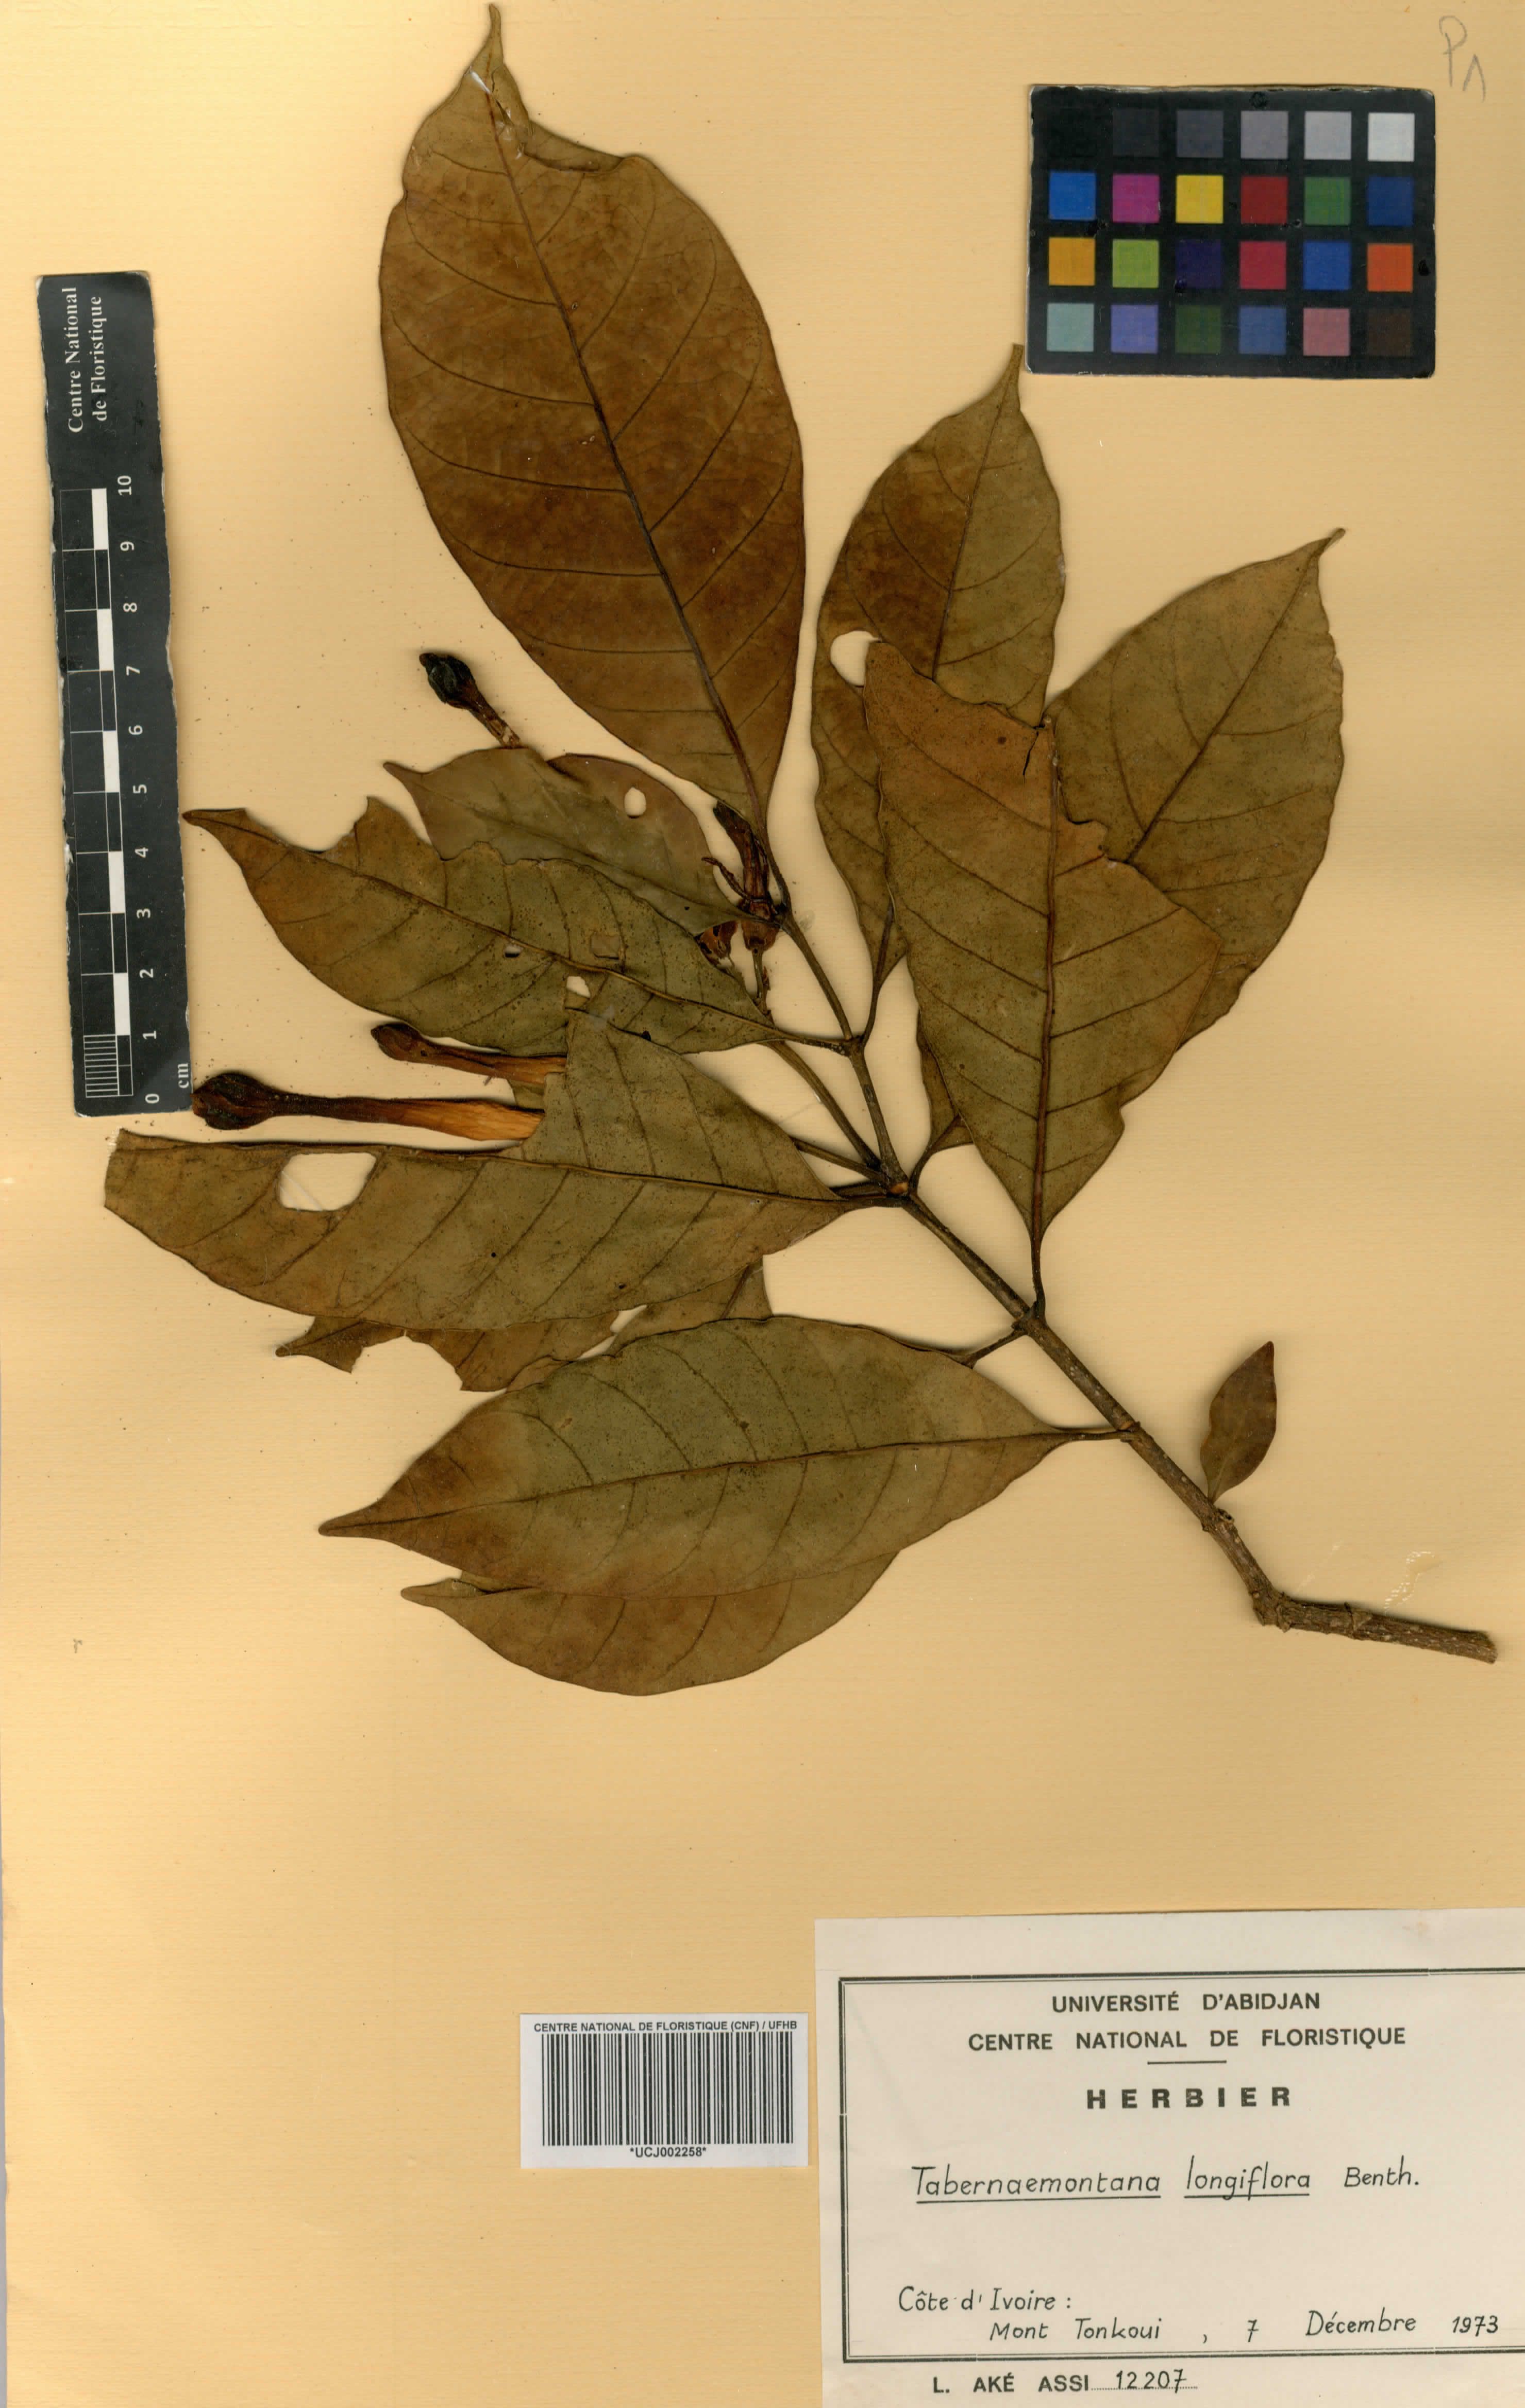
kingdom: Plantae
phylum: Tracheophyta
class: Magnoliopsida
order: Gentianales
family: Apocynaceae
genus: Tabernaemontana
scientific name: Tabernaemontana africana
